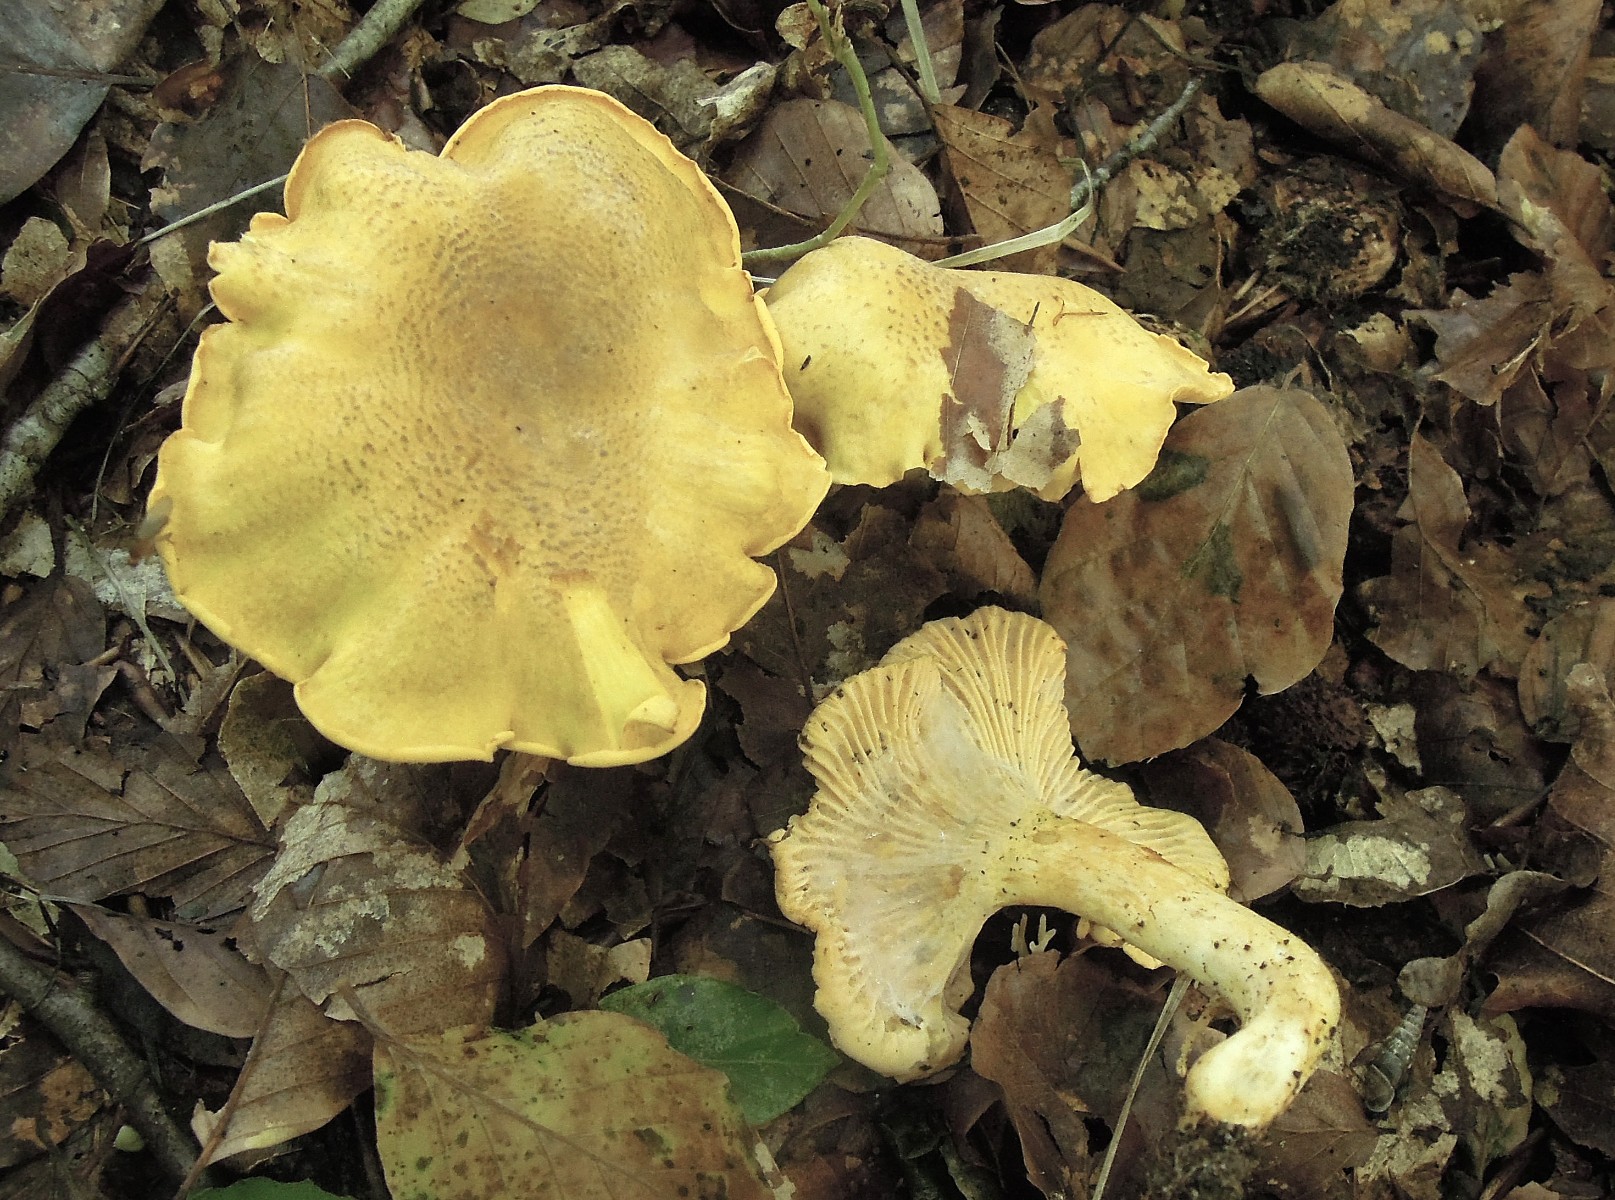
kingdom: Fungi
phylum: Basidiomycota
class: Agaricomycetes
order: Cantharellales
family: Hydnaceae
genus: Cantharellus
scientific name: Cantharellus amethysteus
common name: ametyst-kantarel
